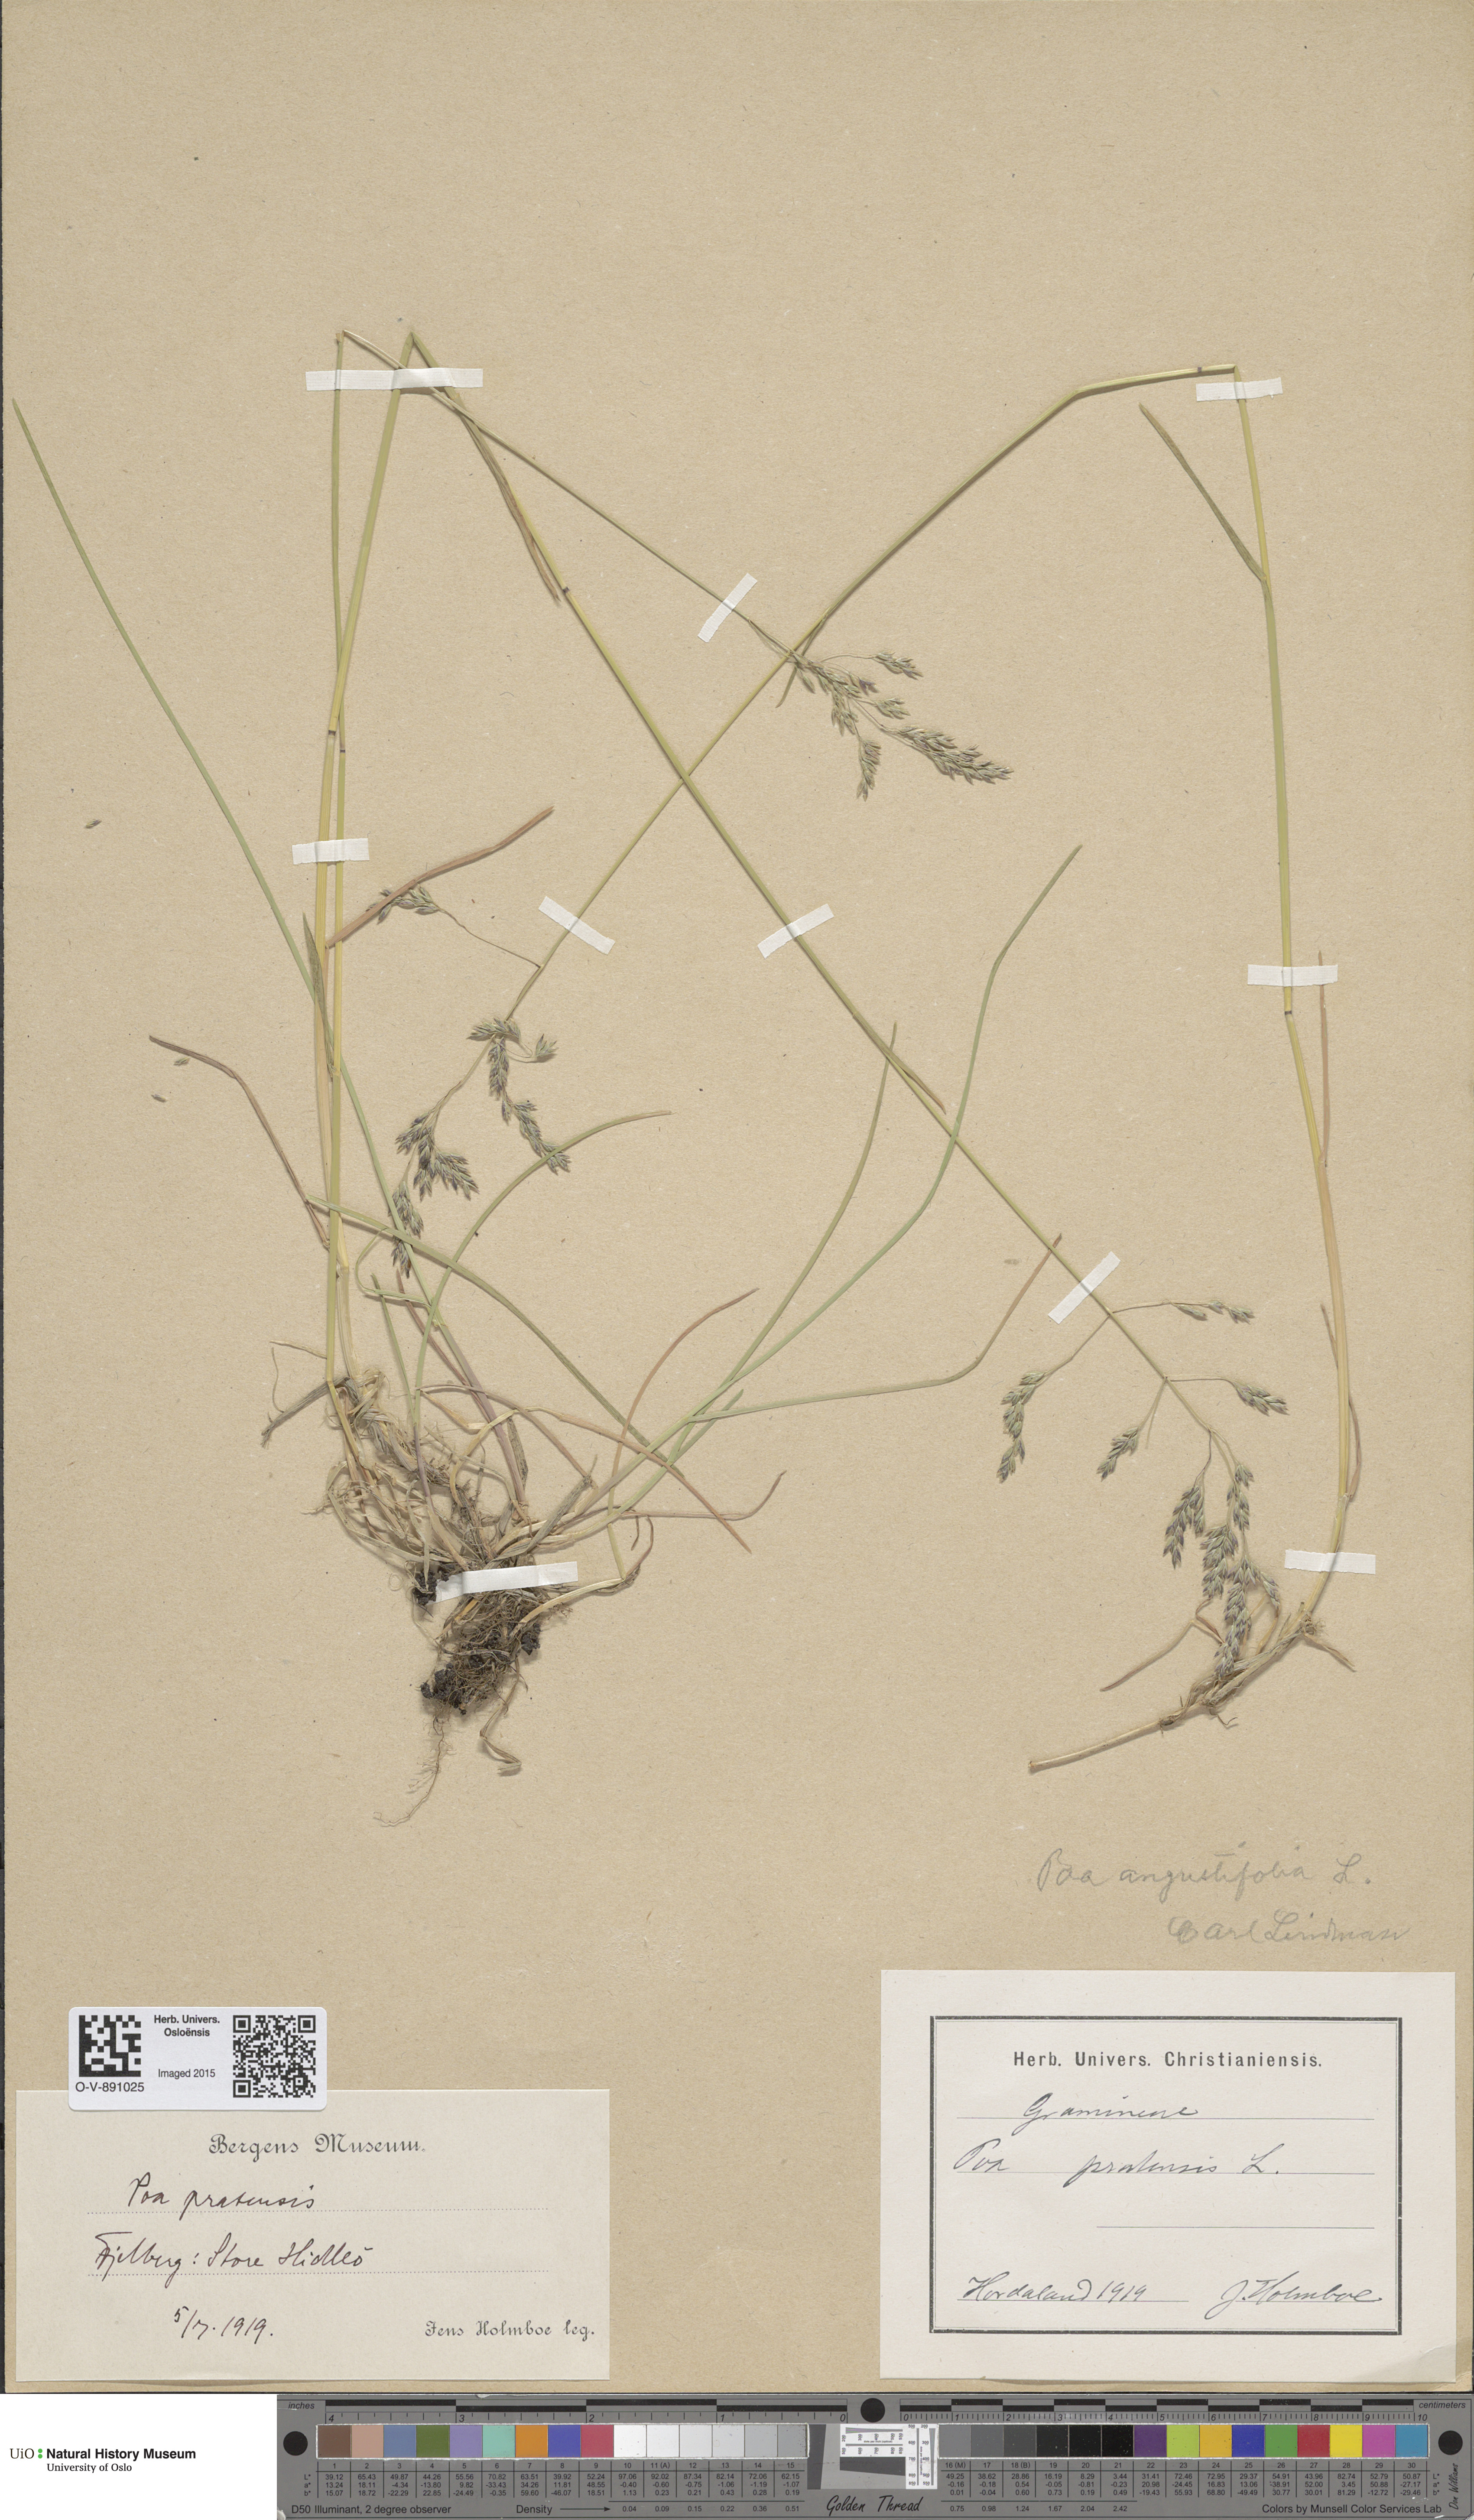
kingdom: Plantae
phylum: Tracheophyta
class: Liliopsida
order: Poales
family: Poaceae
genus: Poa
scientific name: Poa angustifolia
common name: Narrow-leaved meadow-grass
